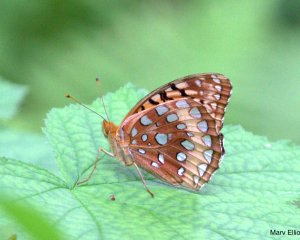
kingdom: Animalia
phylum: Arthropoda
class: Insecta
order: Lepidoptera
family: Nymphalidae
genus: Speyeria
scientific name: Speyeria cybele
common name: Great Spangled Fritillary
